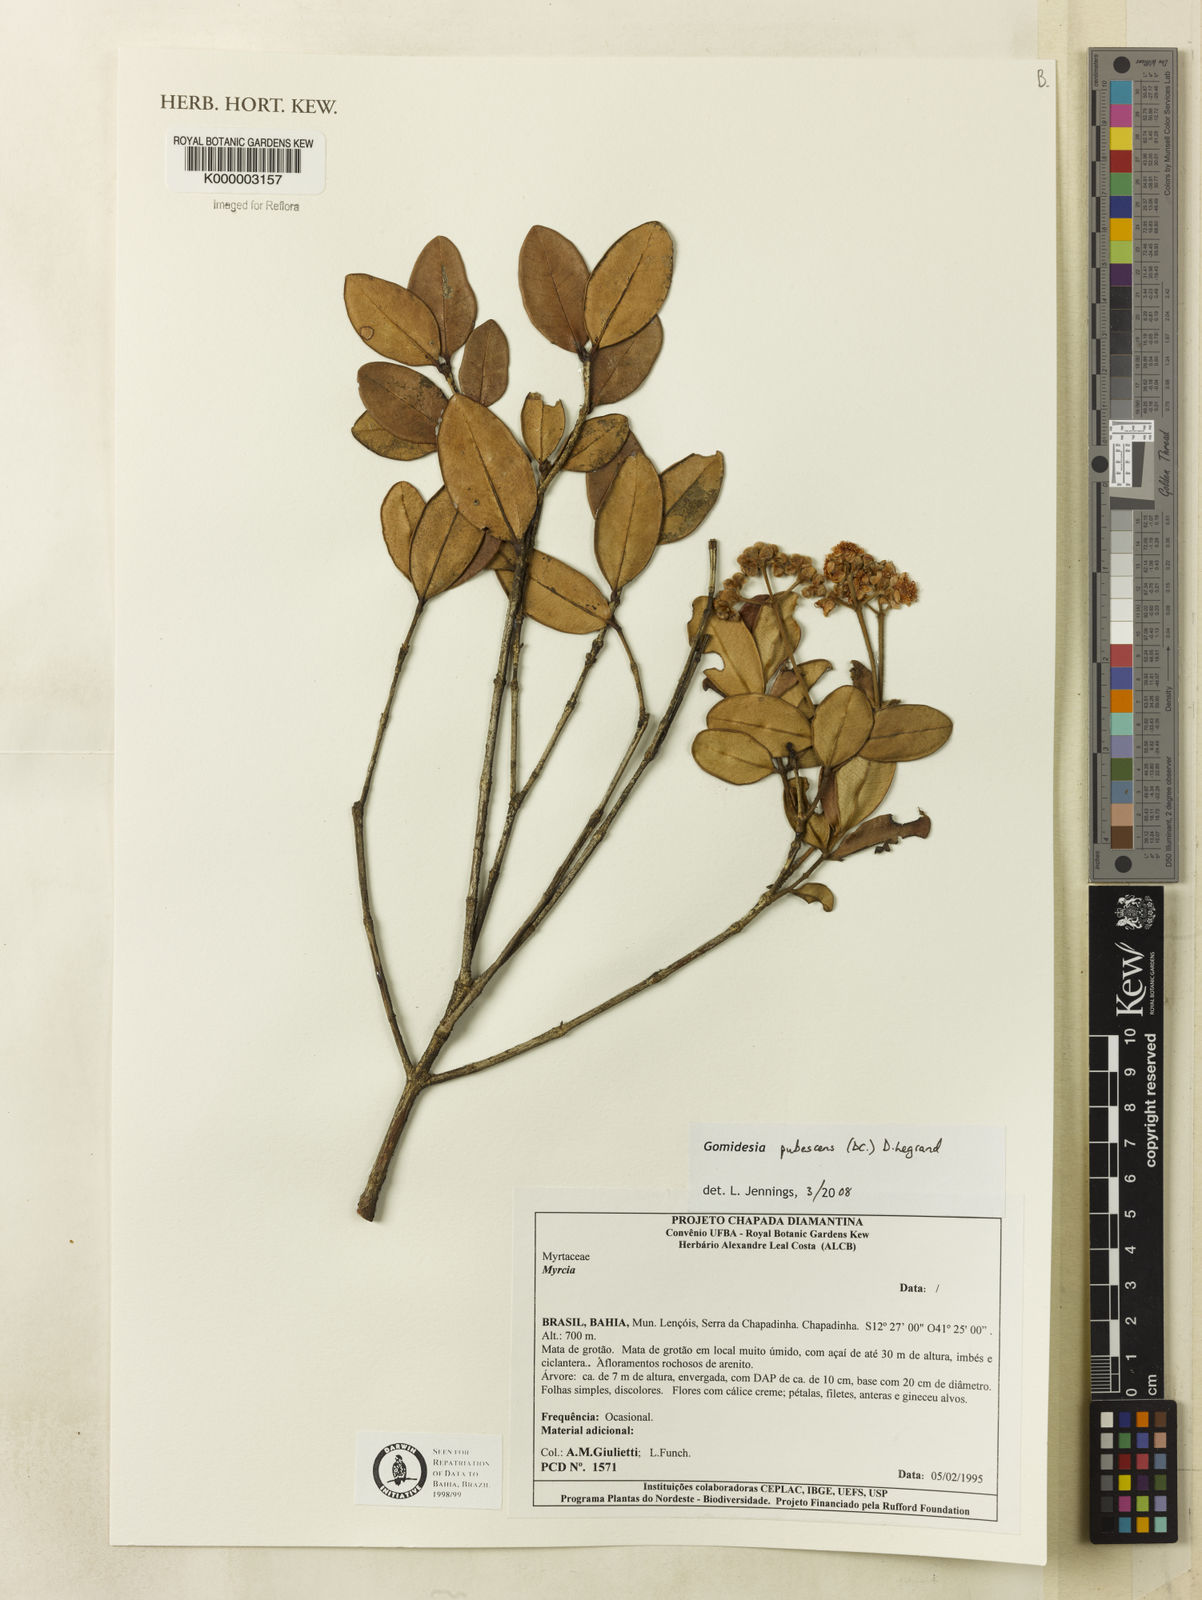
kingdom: Plantae
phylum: Tracheophyta
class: Magnoliopsida
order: Myrtales
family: Myrtaceae
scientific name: Myrtaceae
